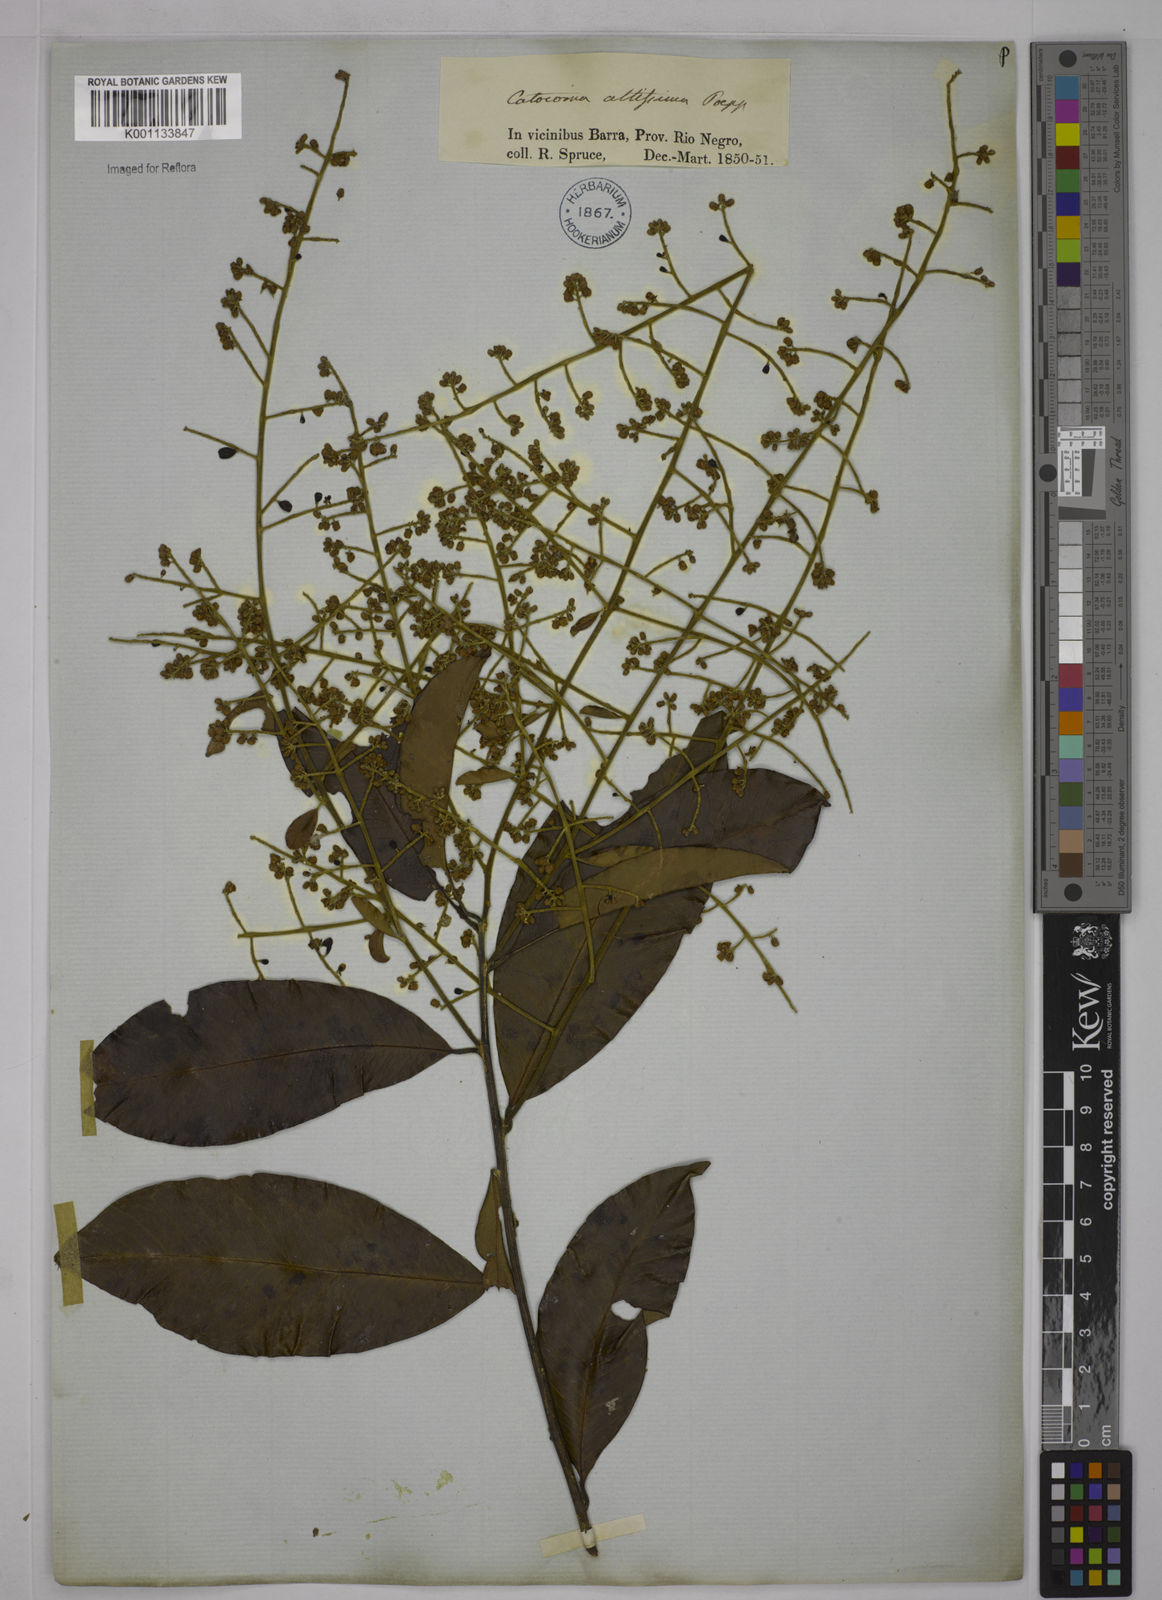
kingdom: Plantae
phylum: Tracheophyta
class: Magnoliopsida
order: Fabales
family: Polygalaceae
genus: Bredemeyera
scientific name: Bredemeyera divaricata
